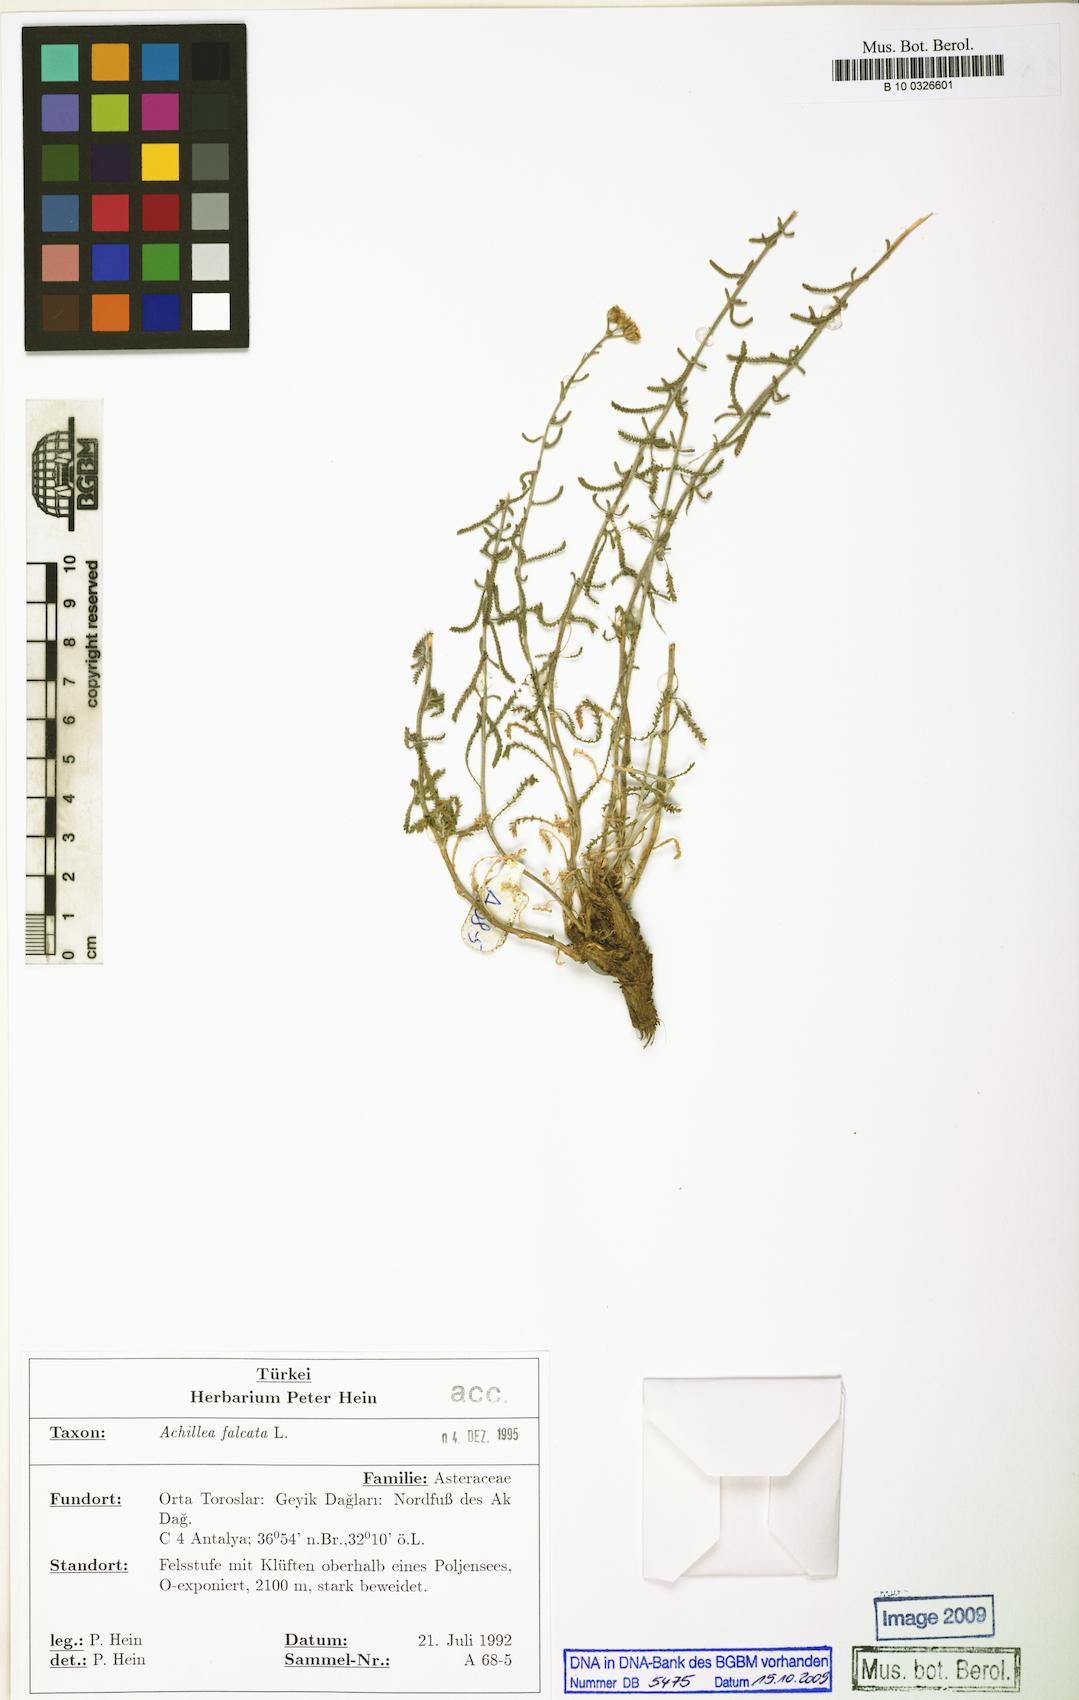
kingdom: Plantae
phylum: Tracheophyta
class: Magnoliopsida
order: Asterales
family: Asteraceae
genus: Achillea
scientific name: Achillea falcata
